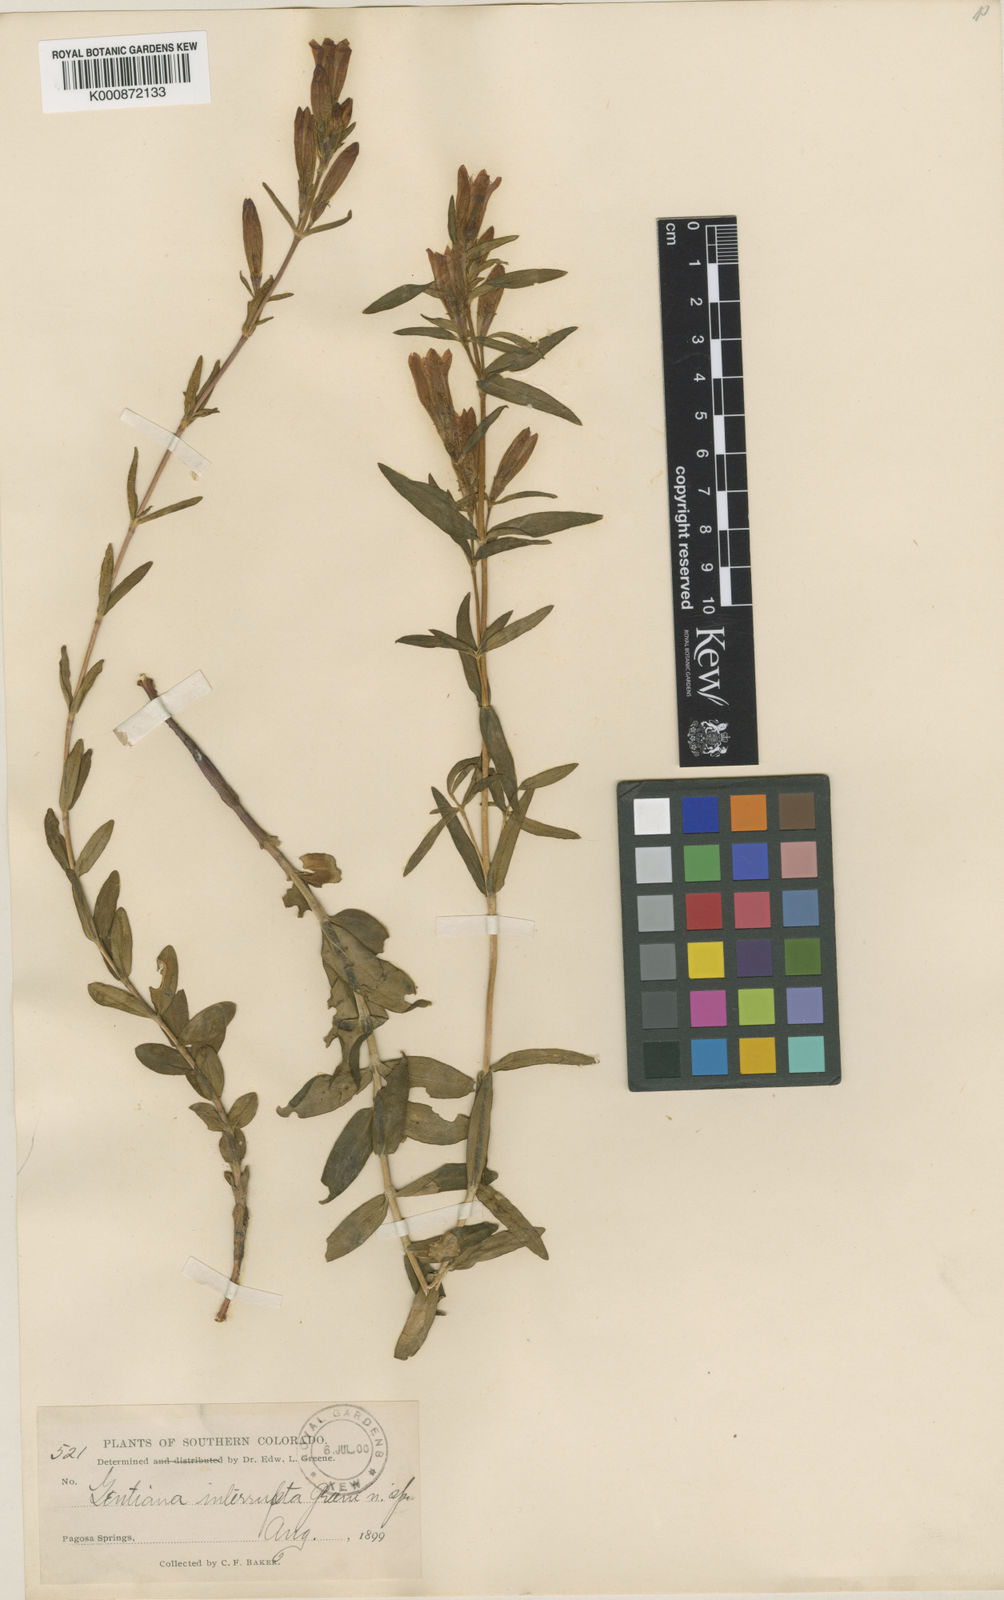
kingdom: Plantae
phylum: Tracheophyta
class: Magnoliopsida
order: Gentianales
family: Gentianaceae
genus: Gentiana
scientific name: Gentiana affinis
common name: Rocky mountain gentian
